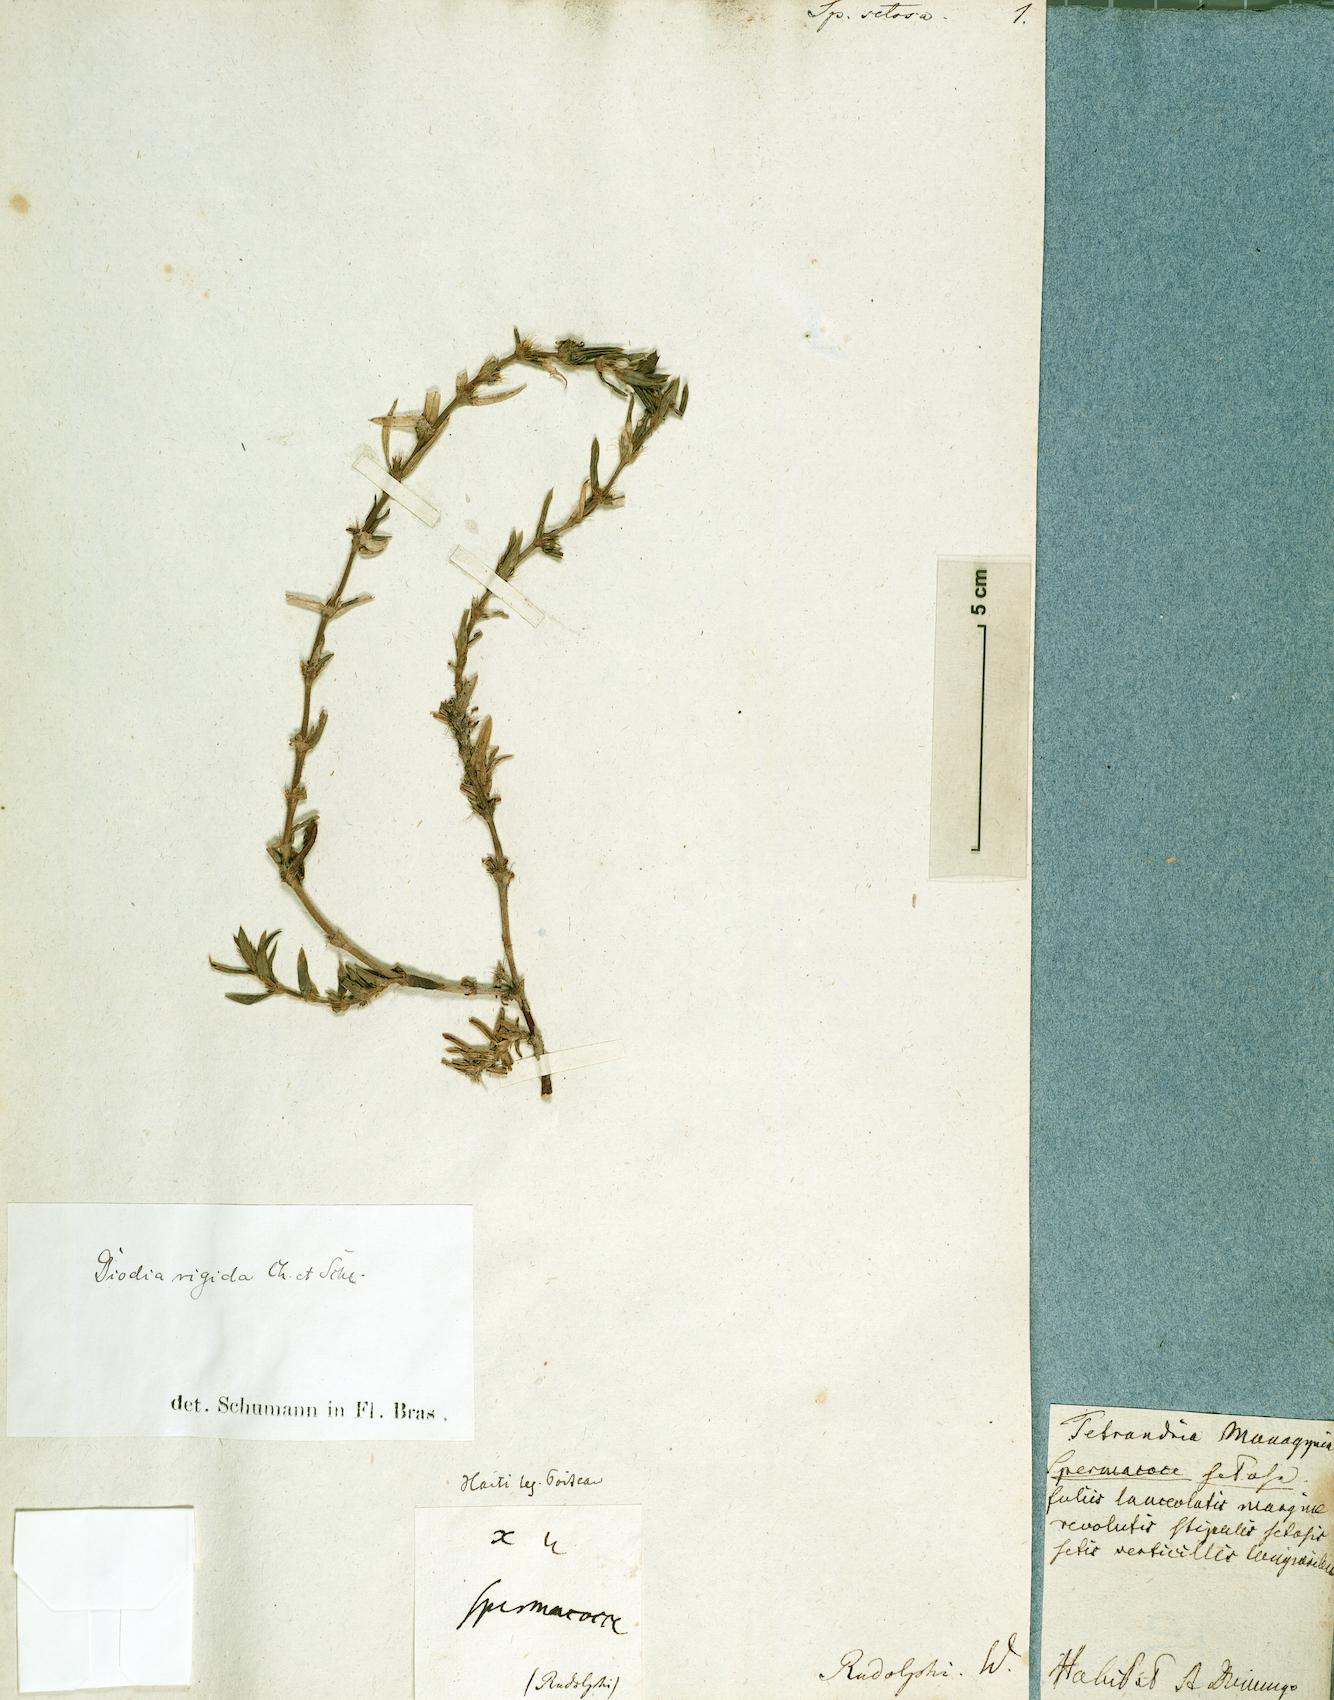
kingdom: Plantae
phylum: Tracheophyta
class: Magnoliopsida
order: Gentianales
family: Rubiaceae
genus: Hexasepalum
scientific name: Hexasepalum apiculatum
